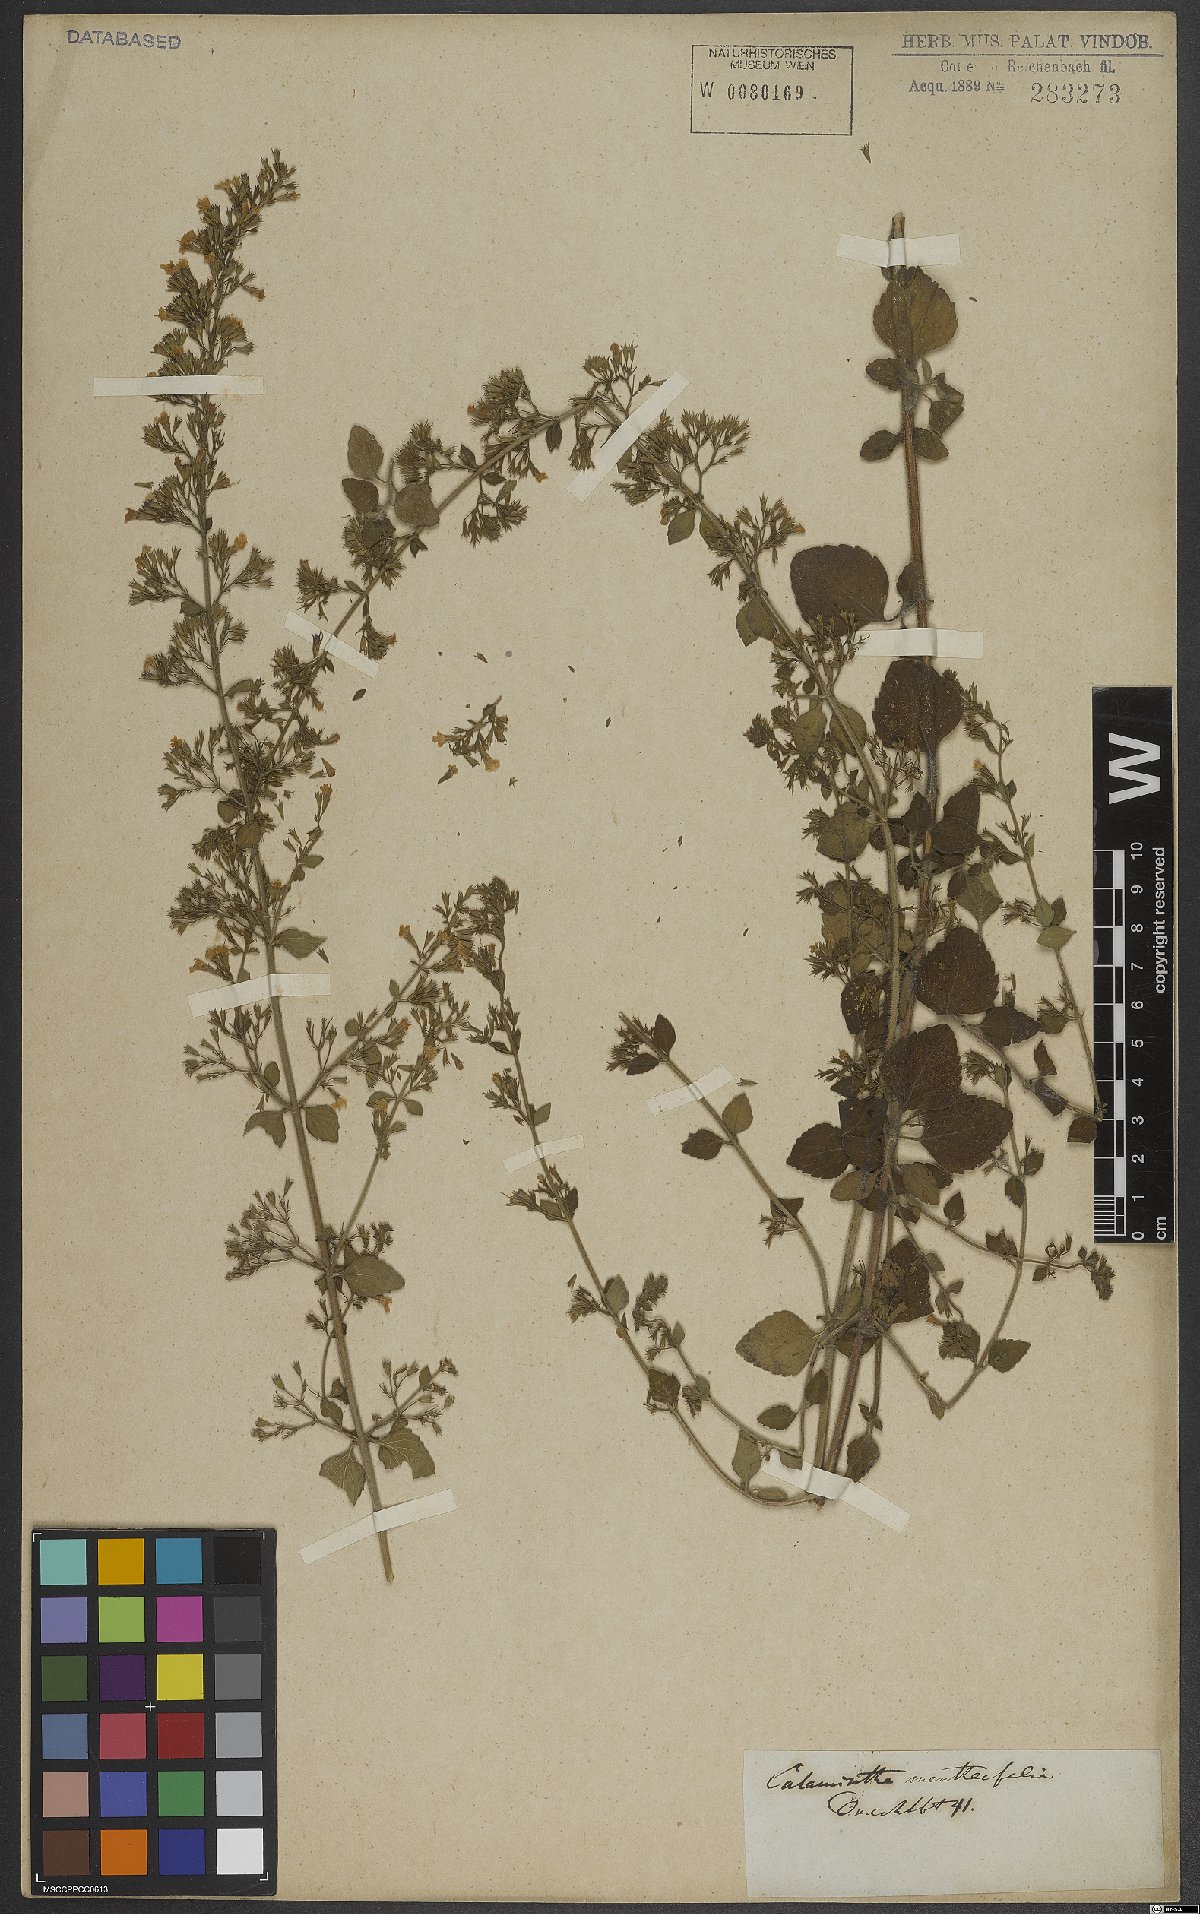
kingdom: Plantae
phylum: Tracheophyta
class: Magnoliopsida
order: Lamiales
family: Lamiaceae
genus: Calamintha
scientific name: Calamintha
